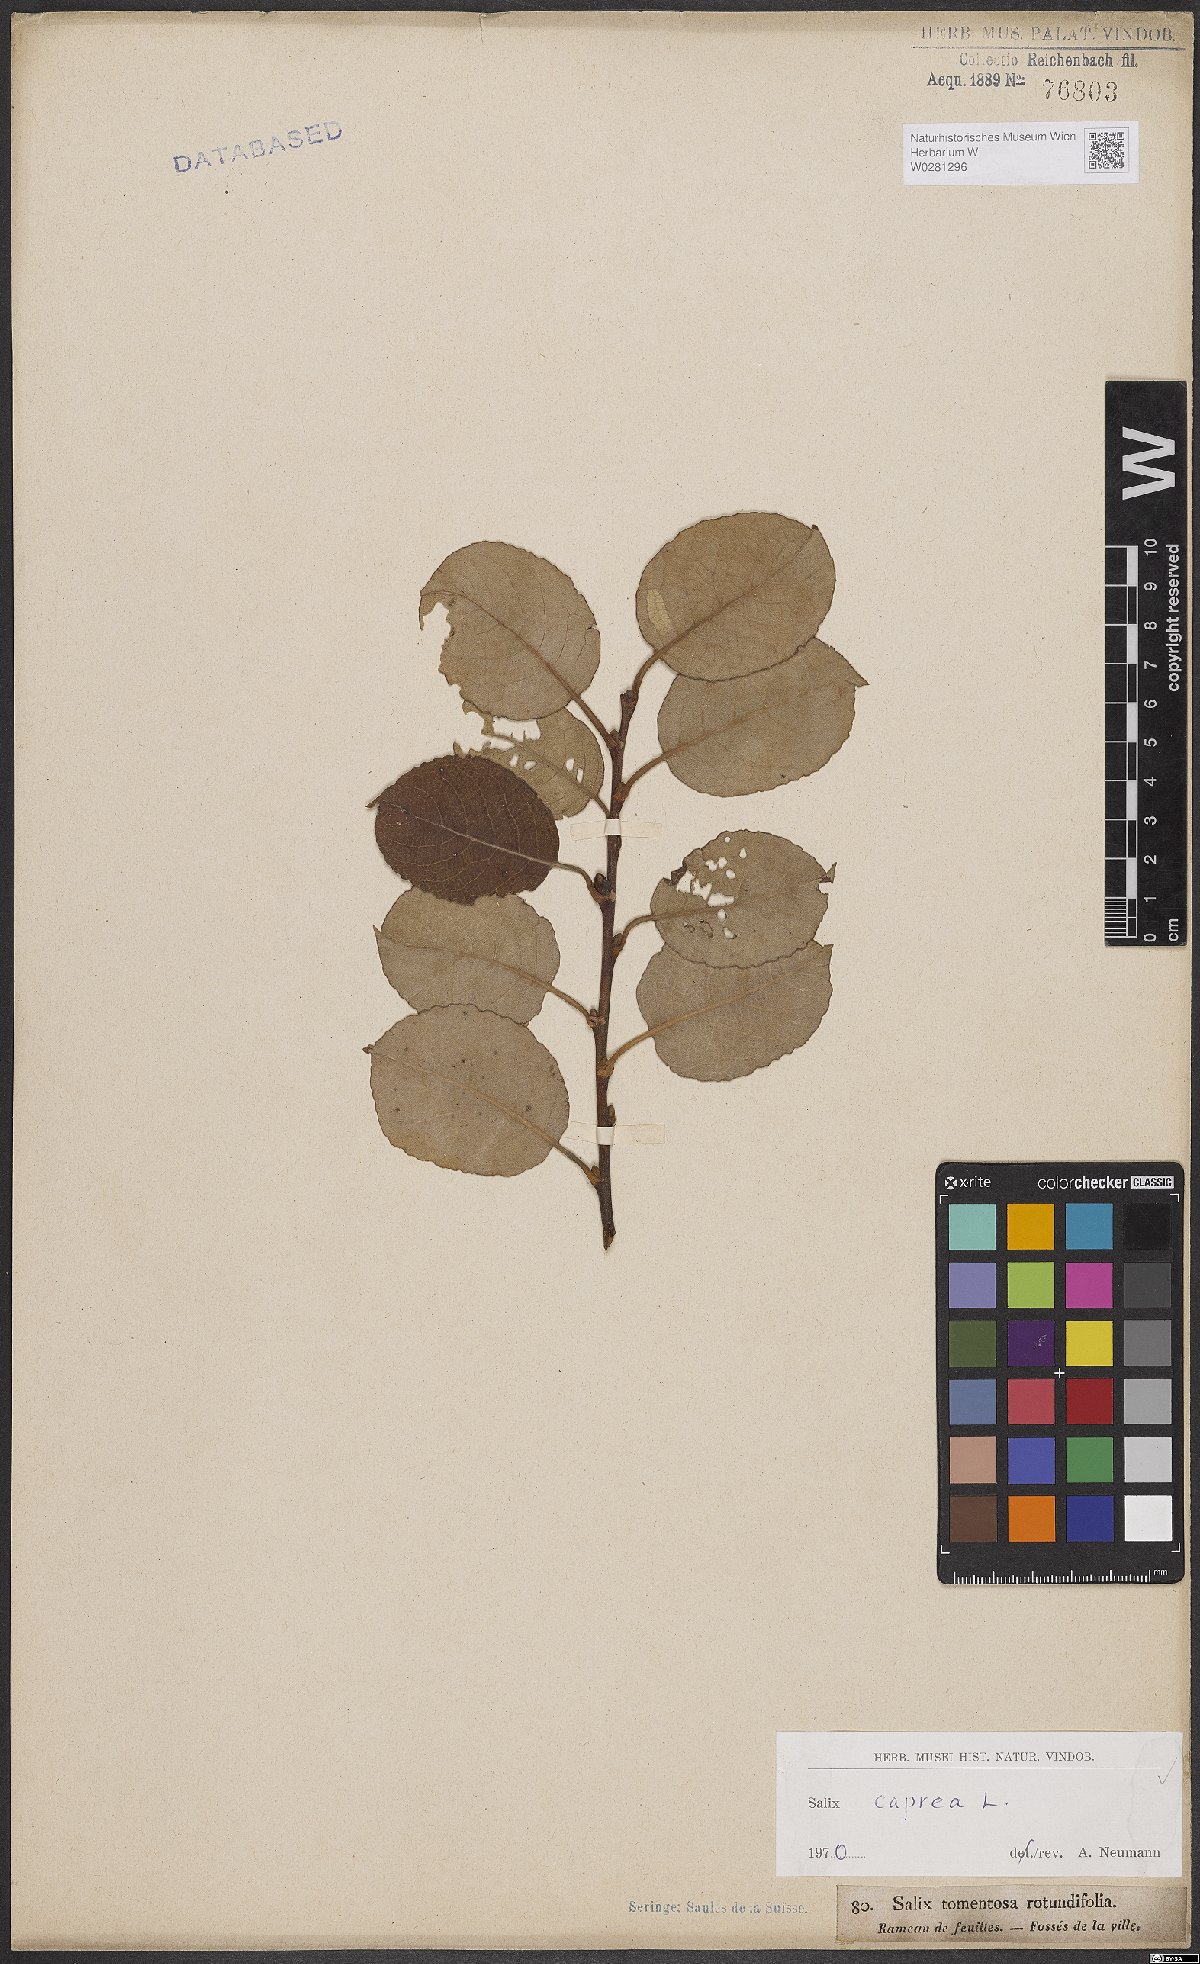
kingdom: Plantae
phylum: Tracheophyta
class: Magnoliopsida
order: Malpighiales
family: Salicaceae
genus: Salix
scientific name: Salix caprea
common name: Goat willow
